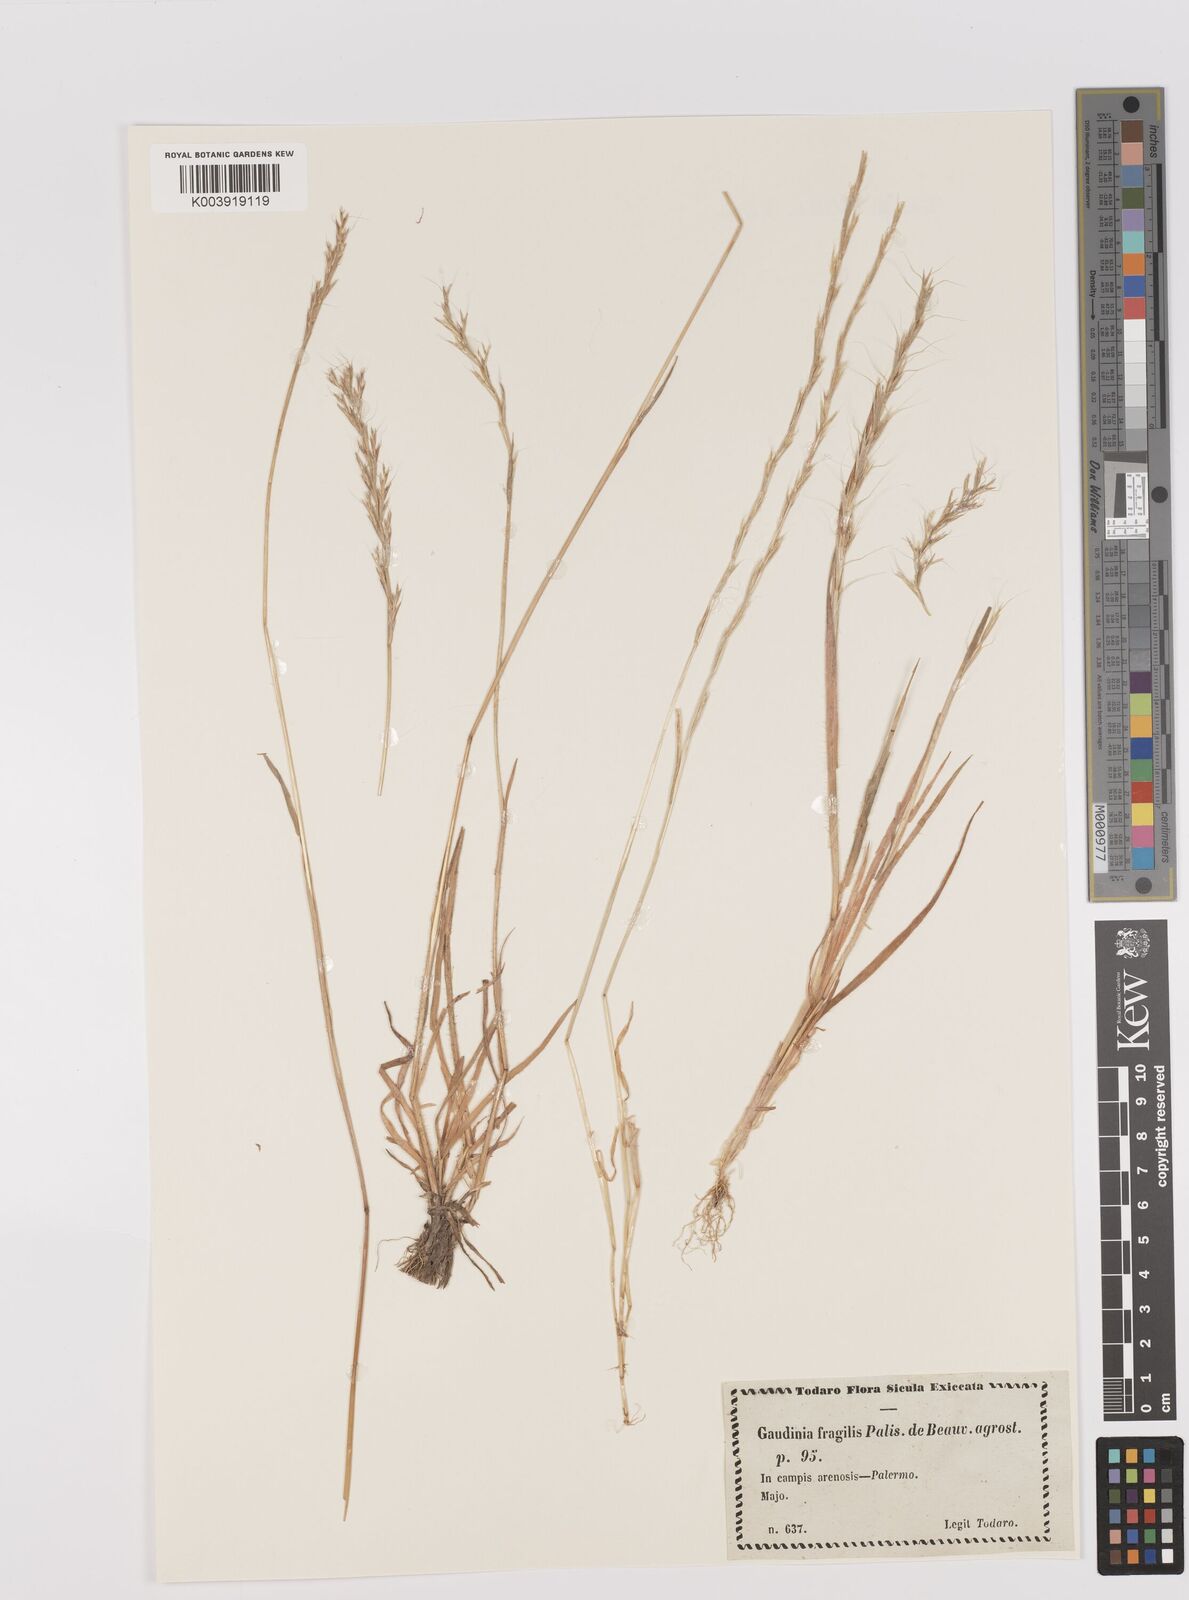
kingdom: Plantae
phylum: Tracheophyta
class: Liliopsida
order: Poales
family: Poaceae
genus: Gaudinia
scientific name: Gaudinia fragilis
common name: French oat-grass
